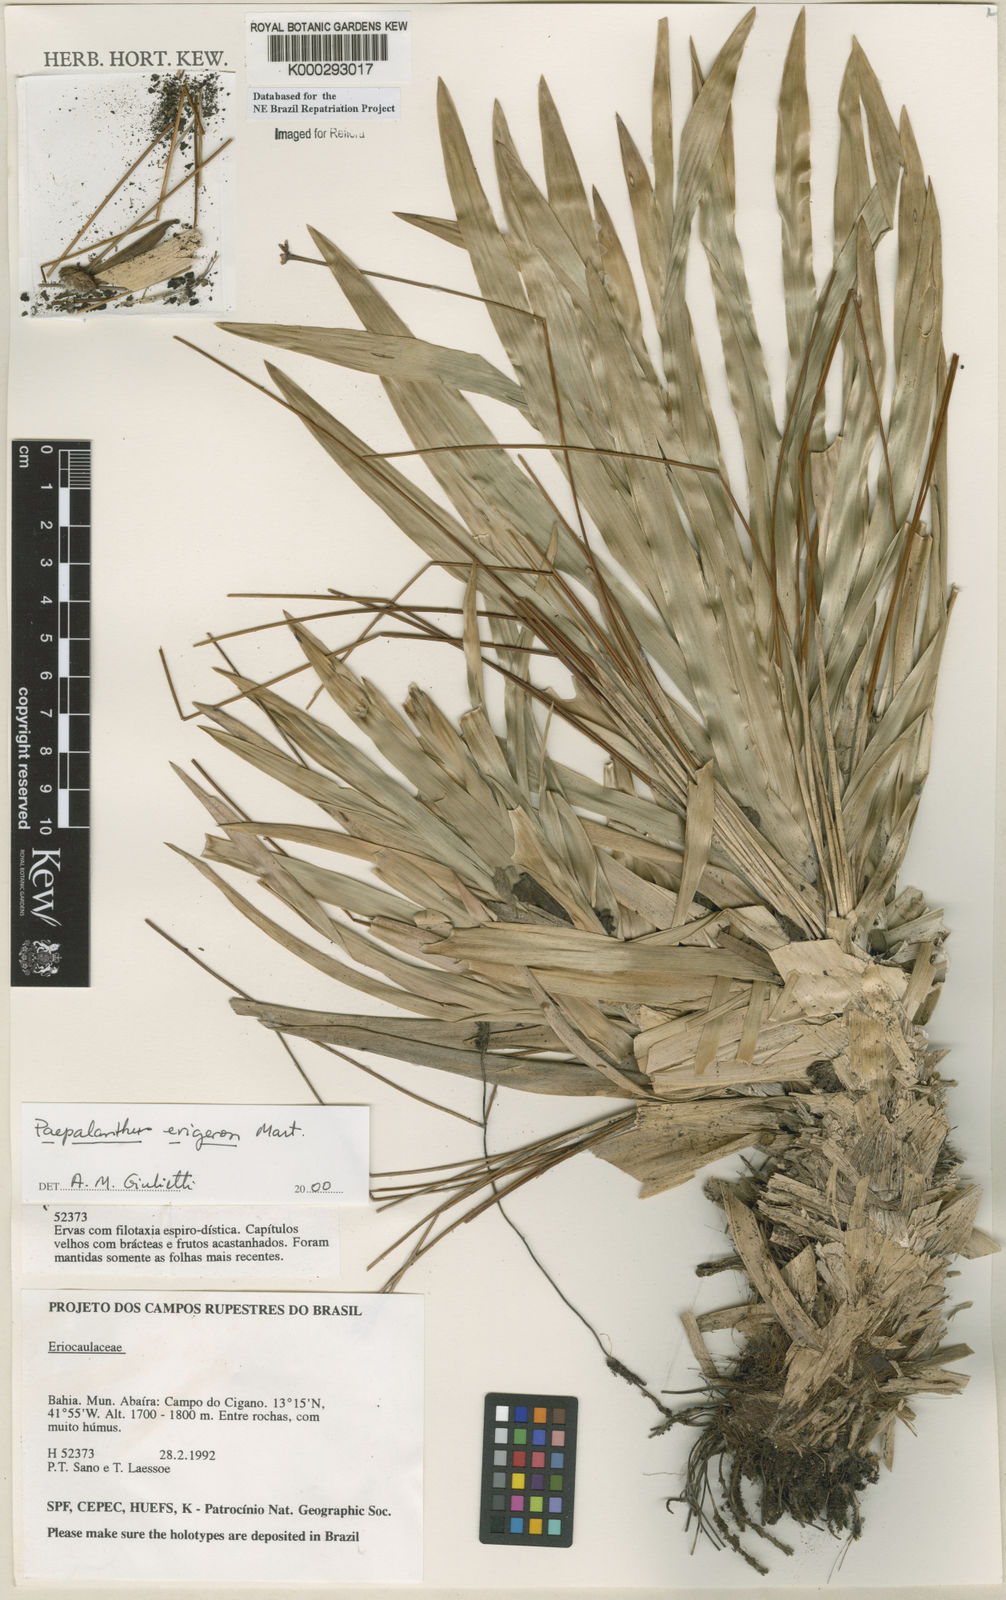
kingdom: Plantae
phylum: Tracheophyta
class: Liliopsida
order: Poales
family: Eriocaulaceae
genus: Paepalanthus
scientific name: Paepalanthus
